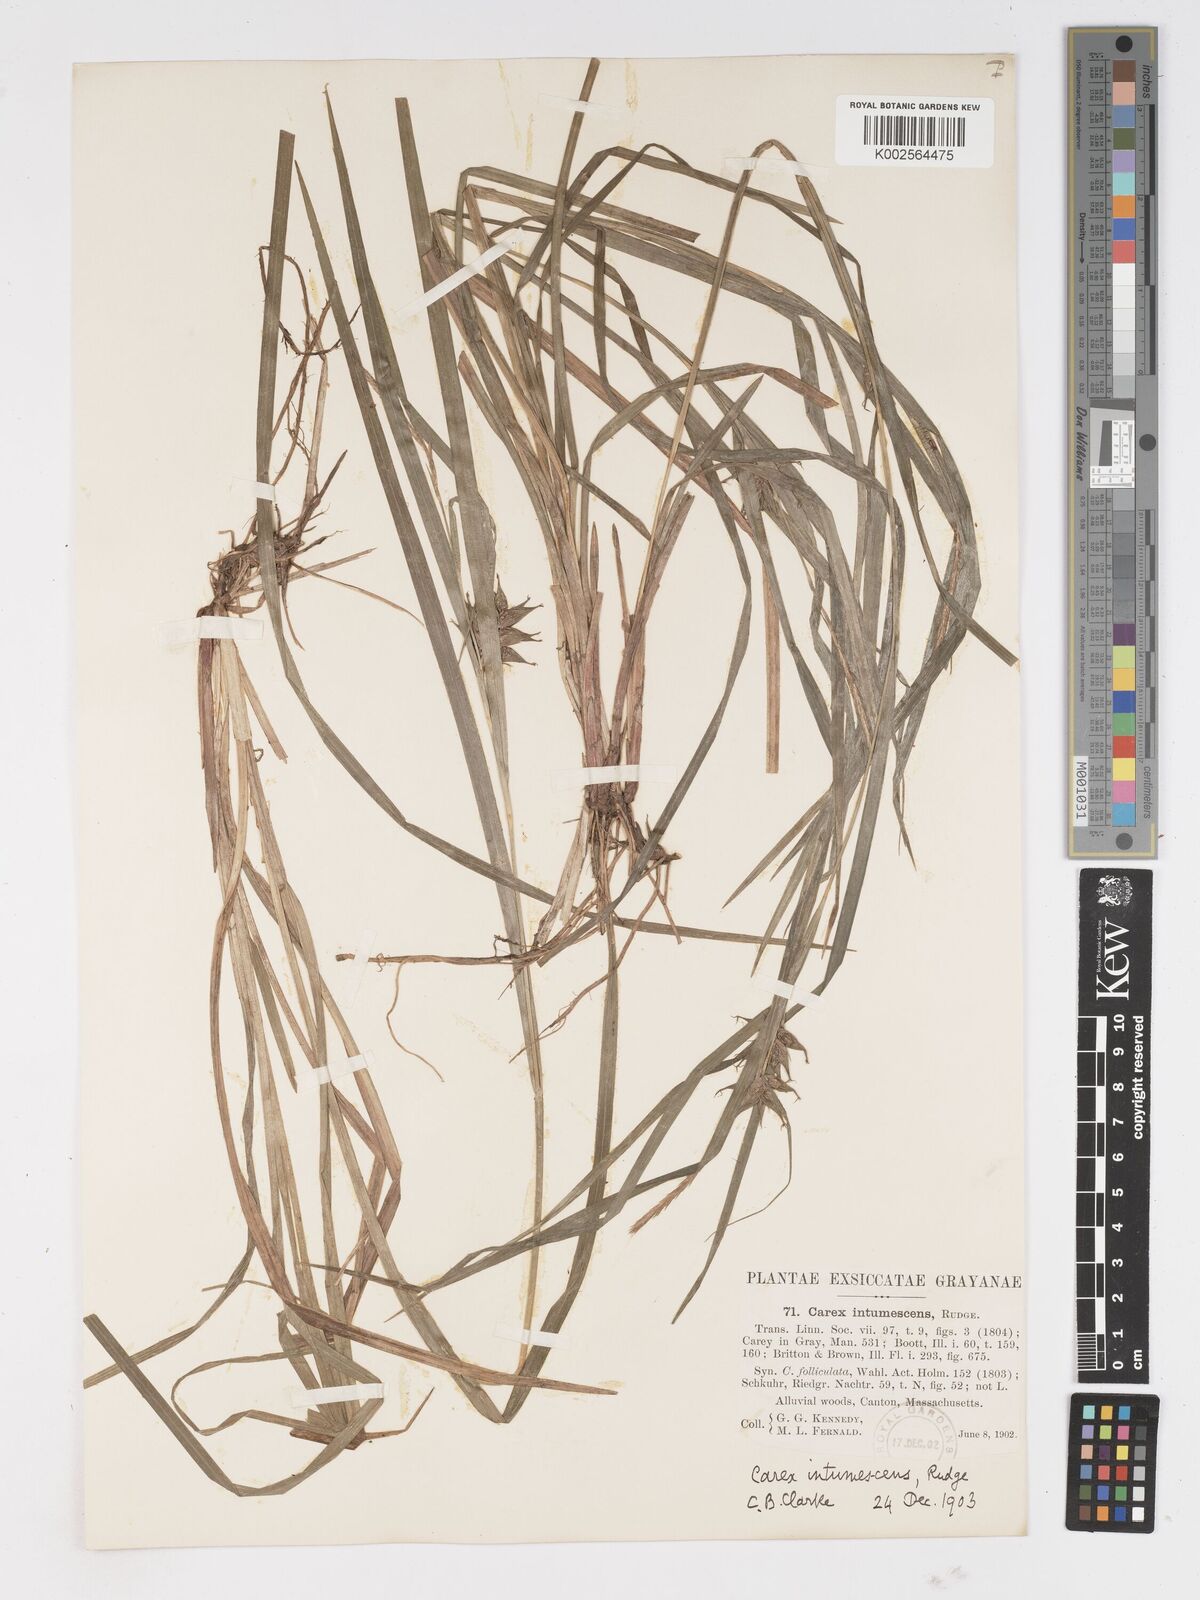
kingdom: Plantae
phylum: Tracheophyta
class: Liliopsida
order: Poales
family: Cyperaceae
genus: Carex
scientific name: Carex intumescens
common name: Greater bladder sedge
